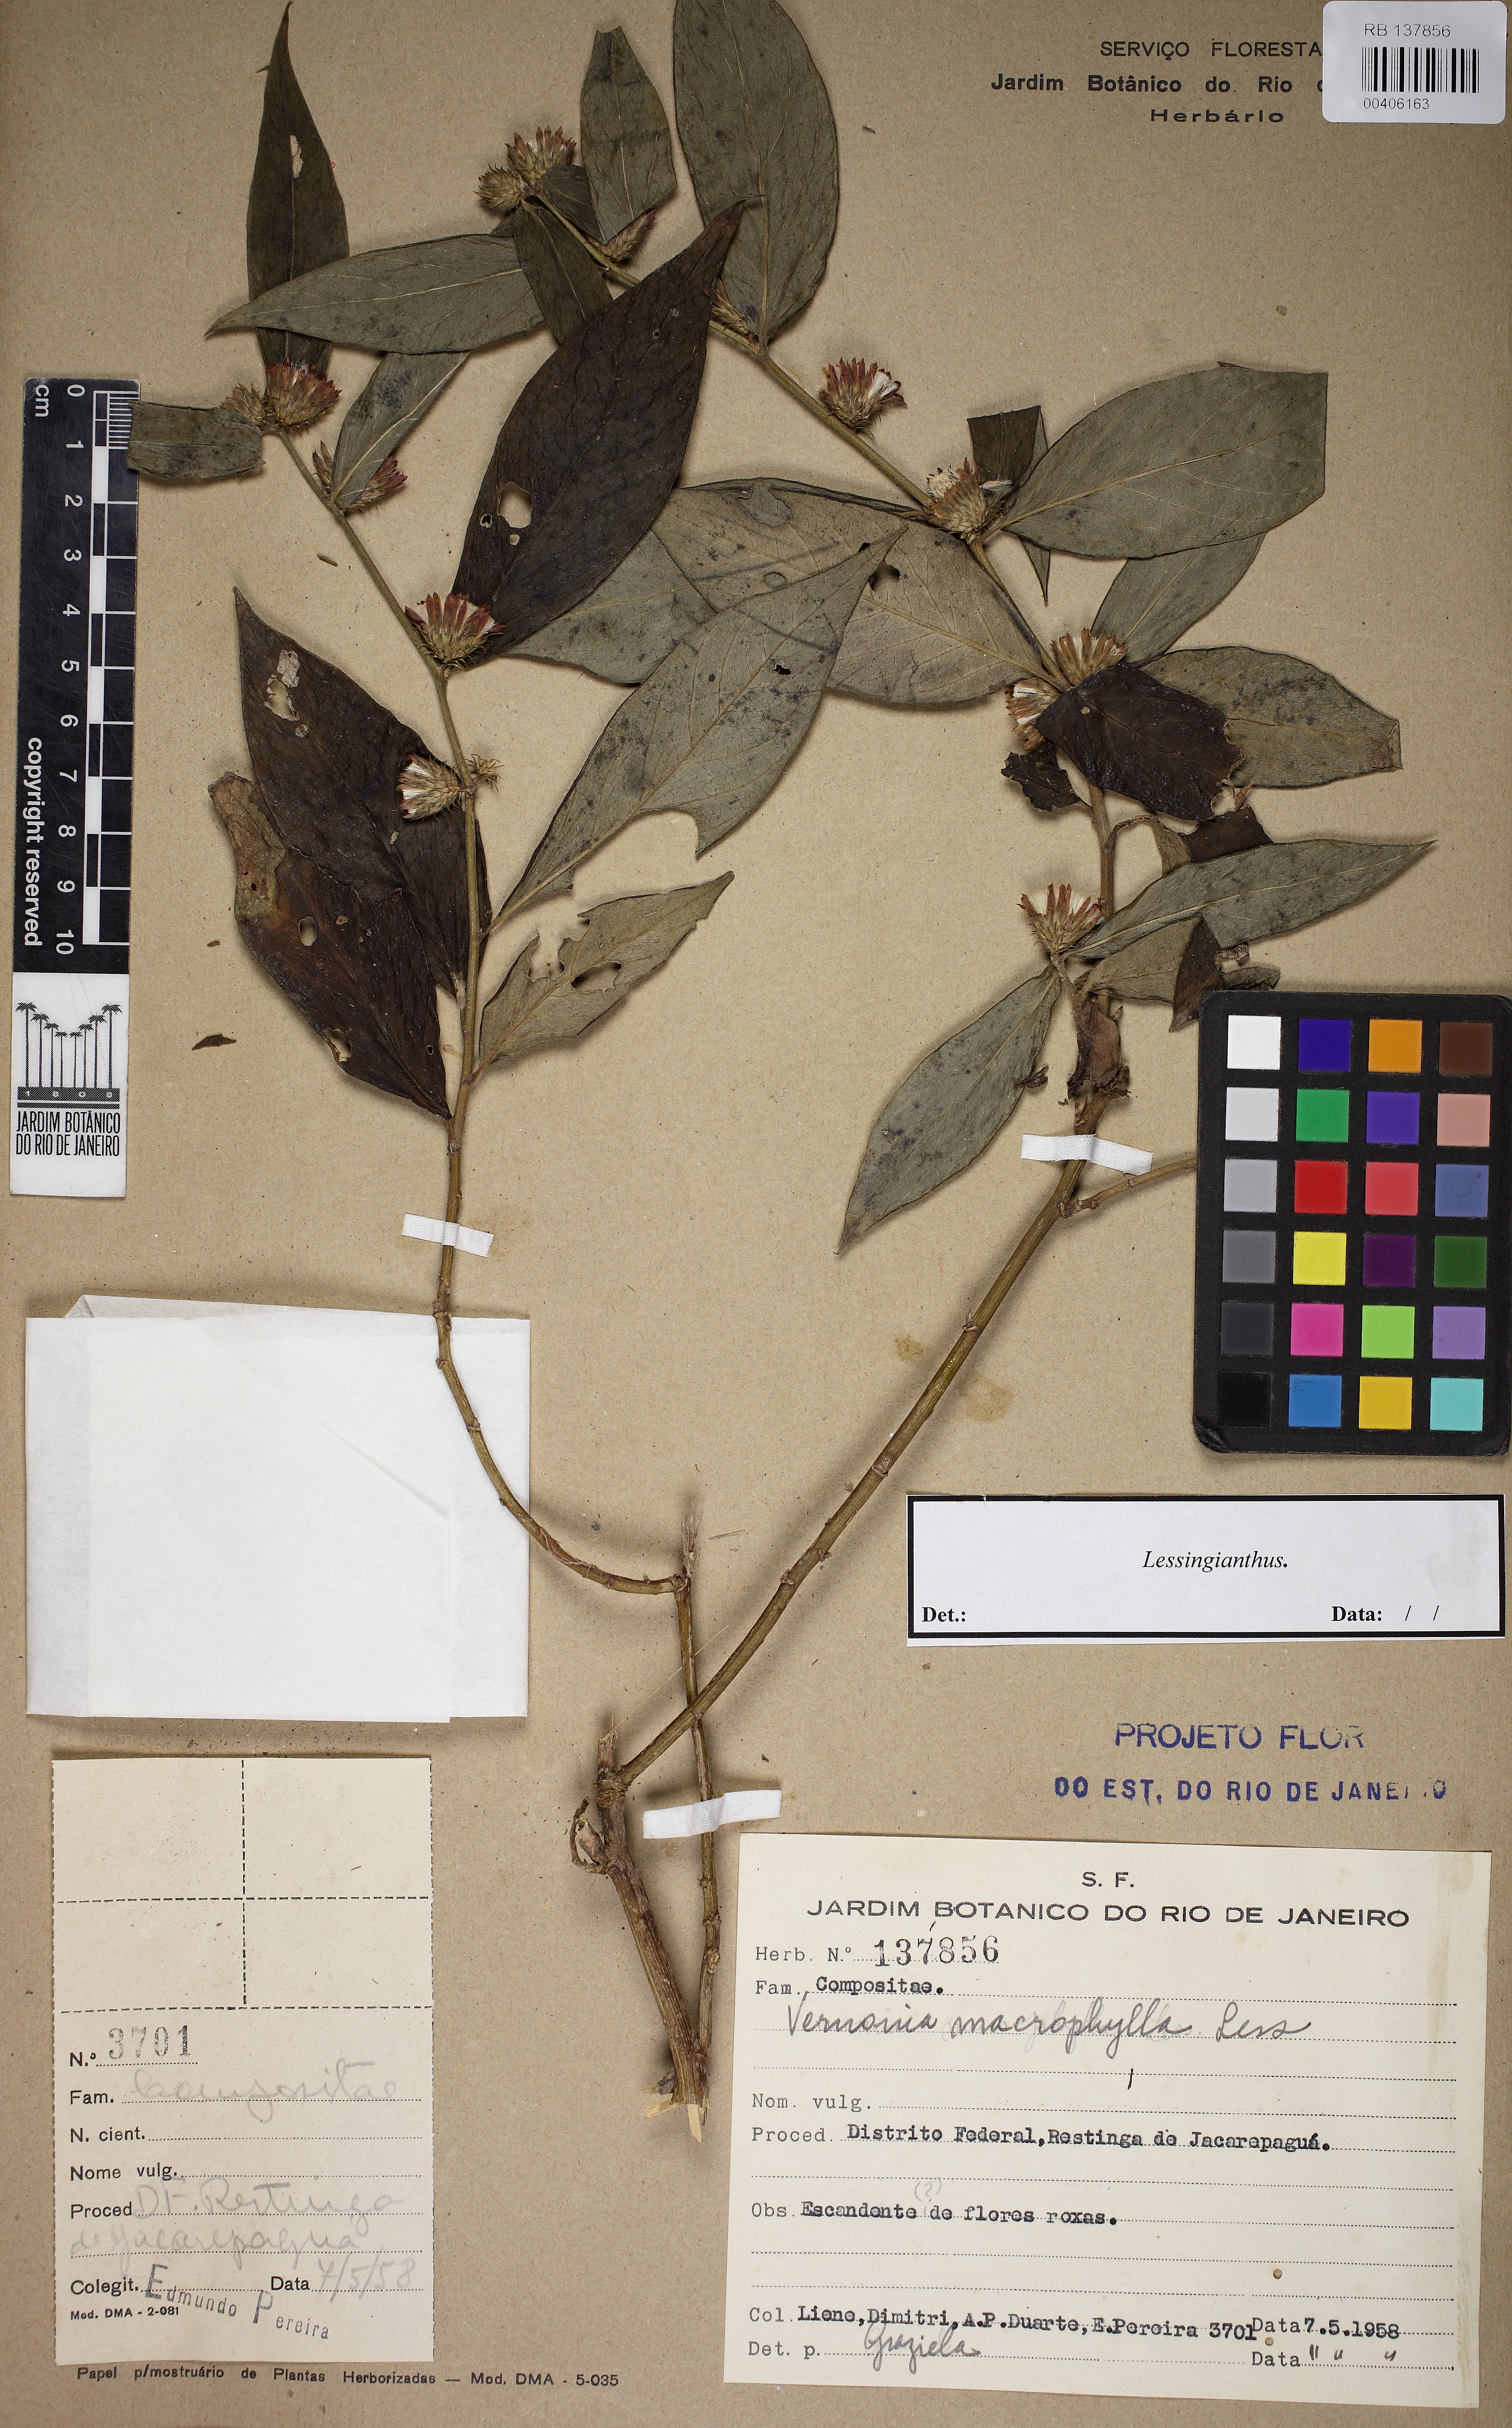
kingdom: Plantae
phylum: Tracheophyta
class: Magnoliopsida
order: Asterales
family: Asteraceae
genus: Lessingianthus
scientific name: Lessingianthus
